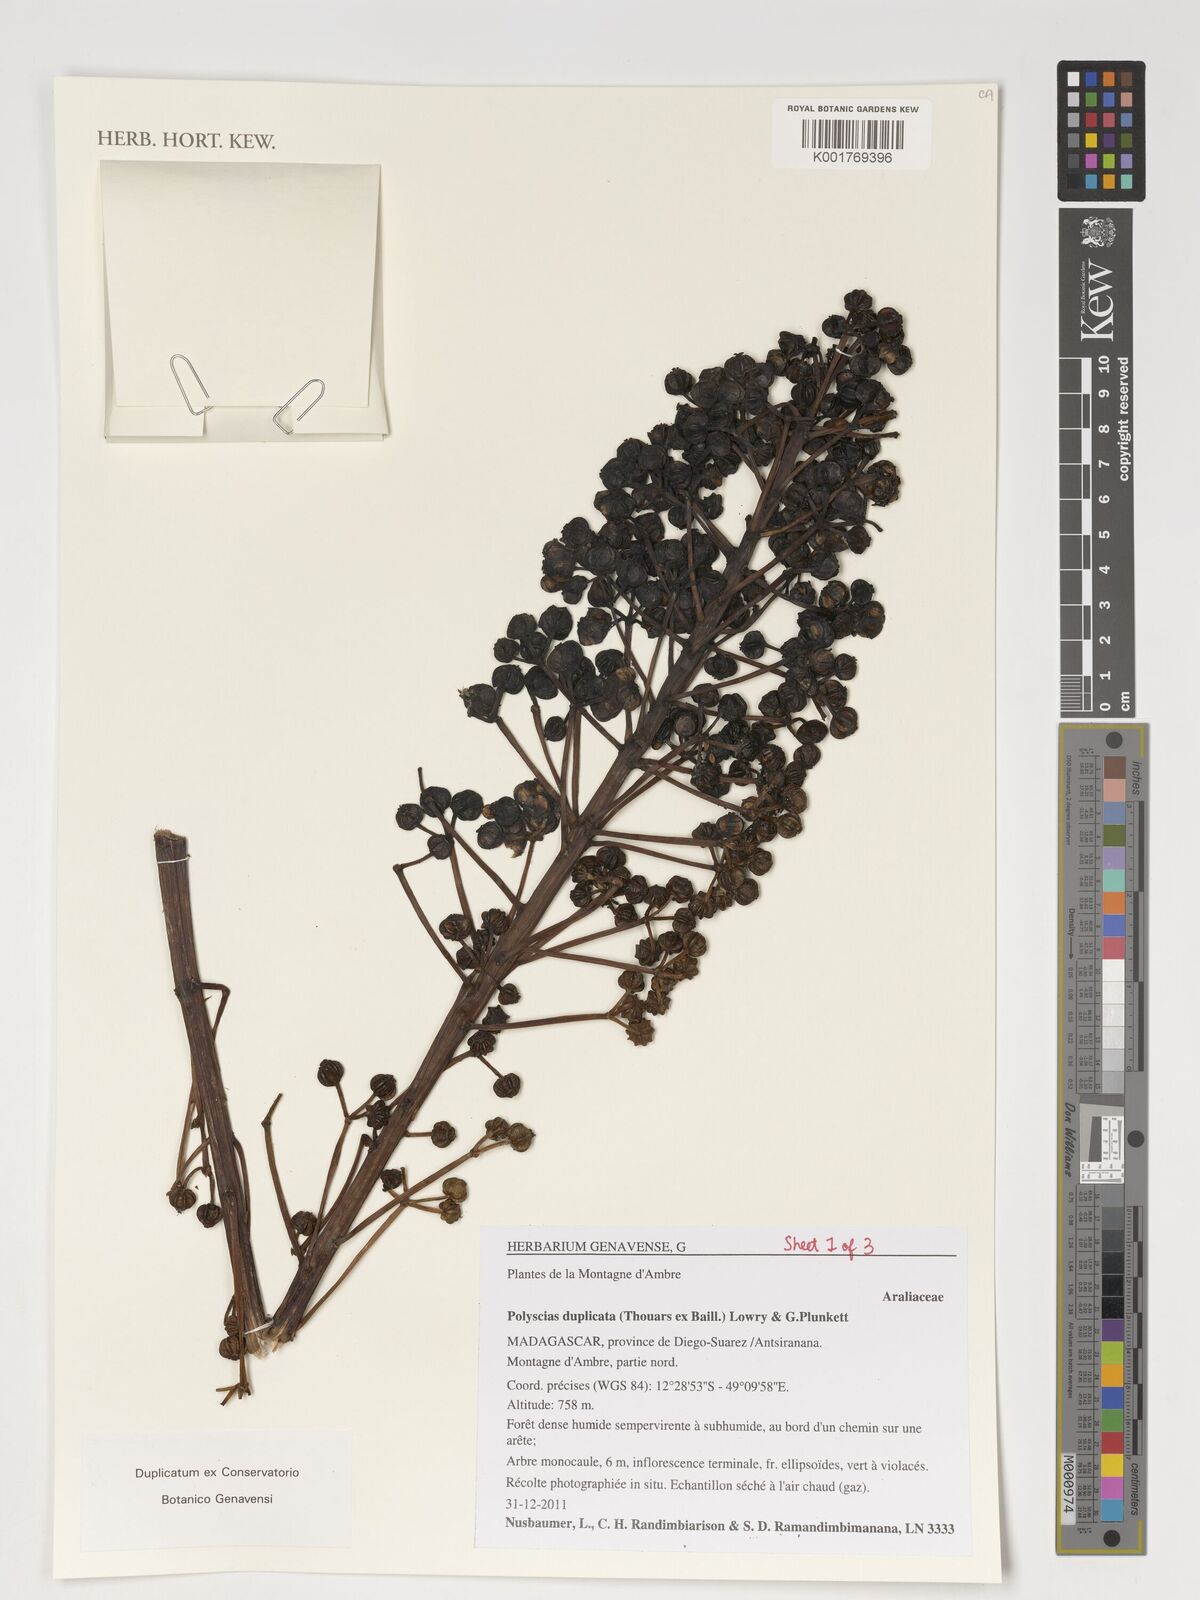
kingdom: Plantae
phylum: Tracheophyta
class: Magnoliopsida
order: Apiales
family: Araliaceae
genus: Polyscias
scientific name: Polyscias duplicata
